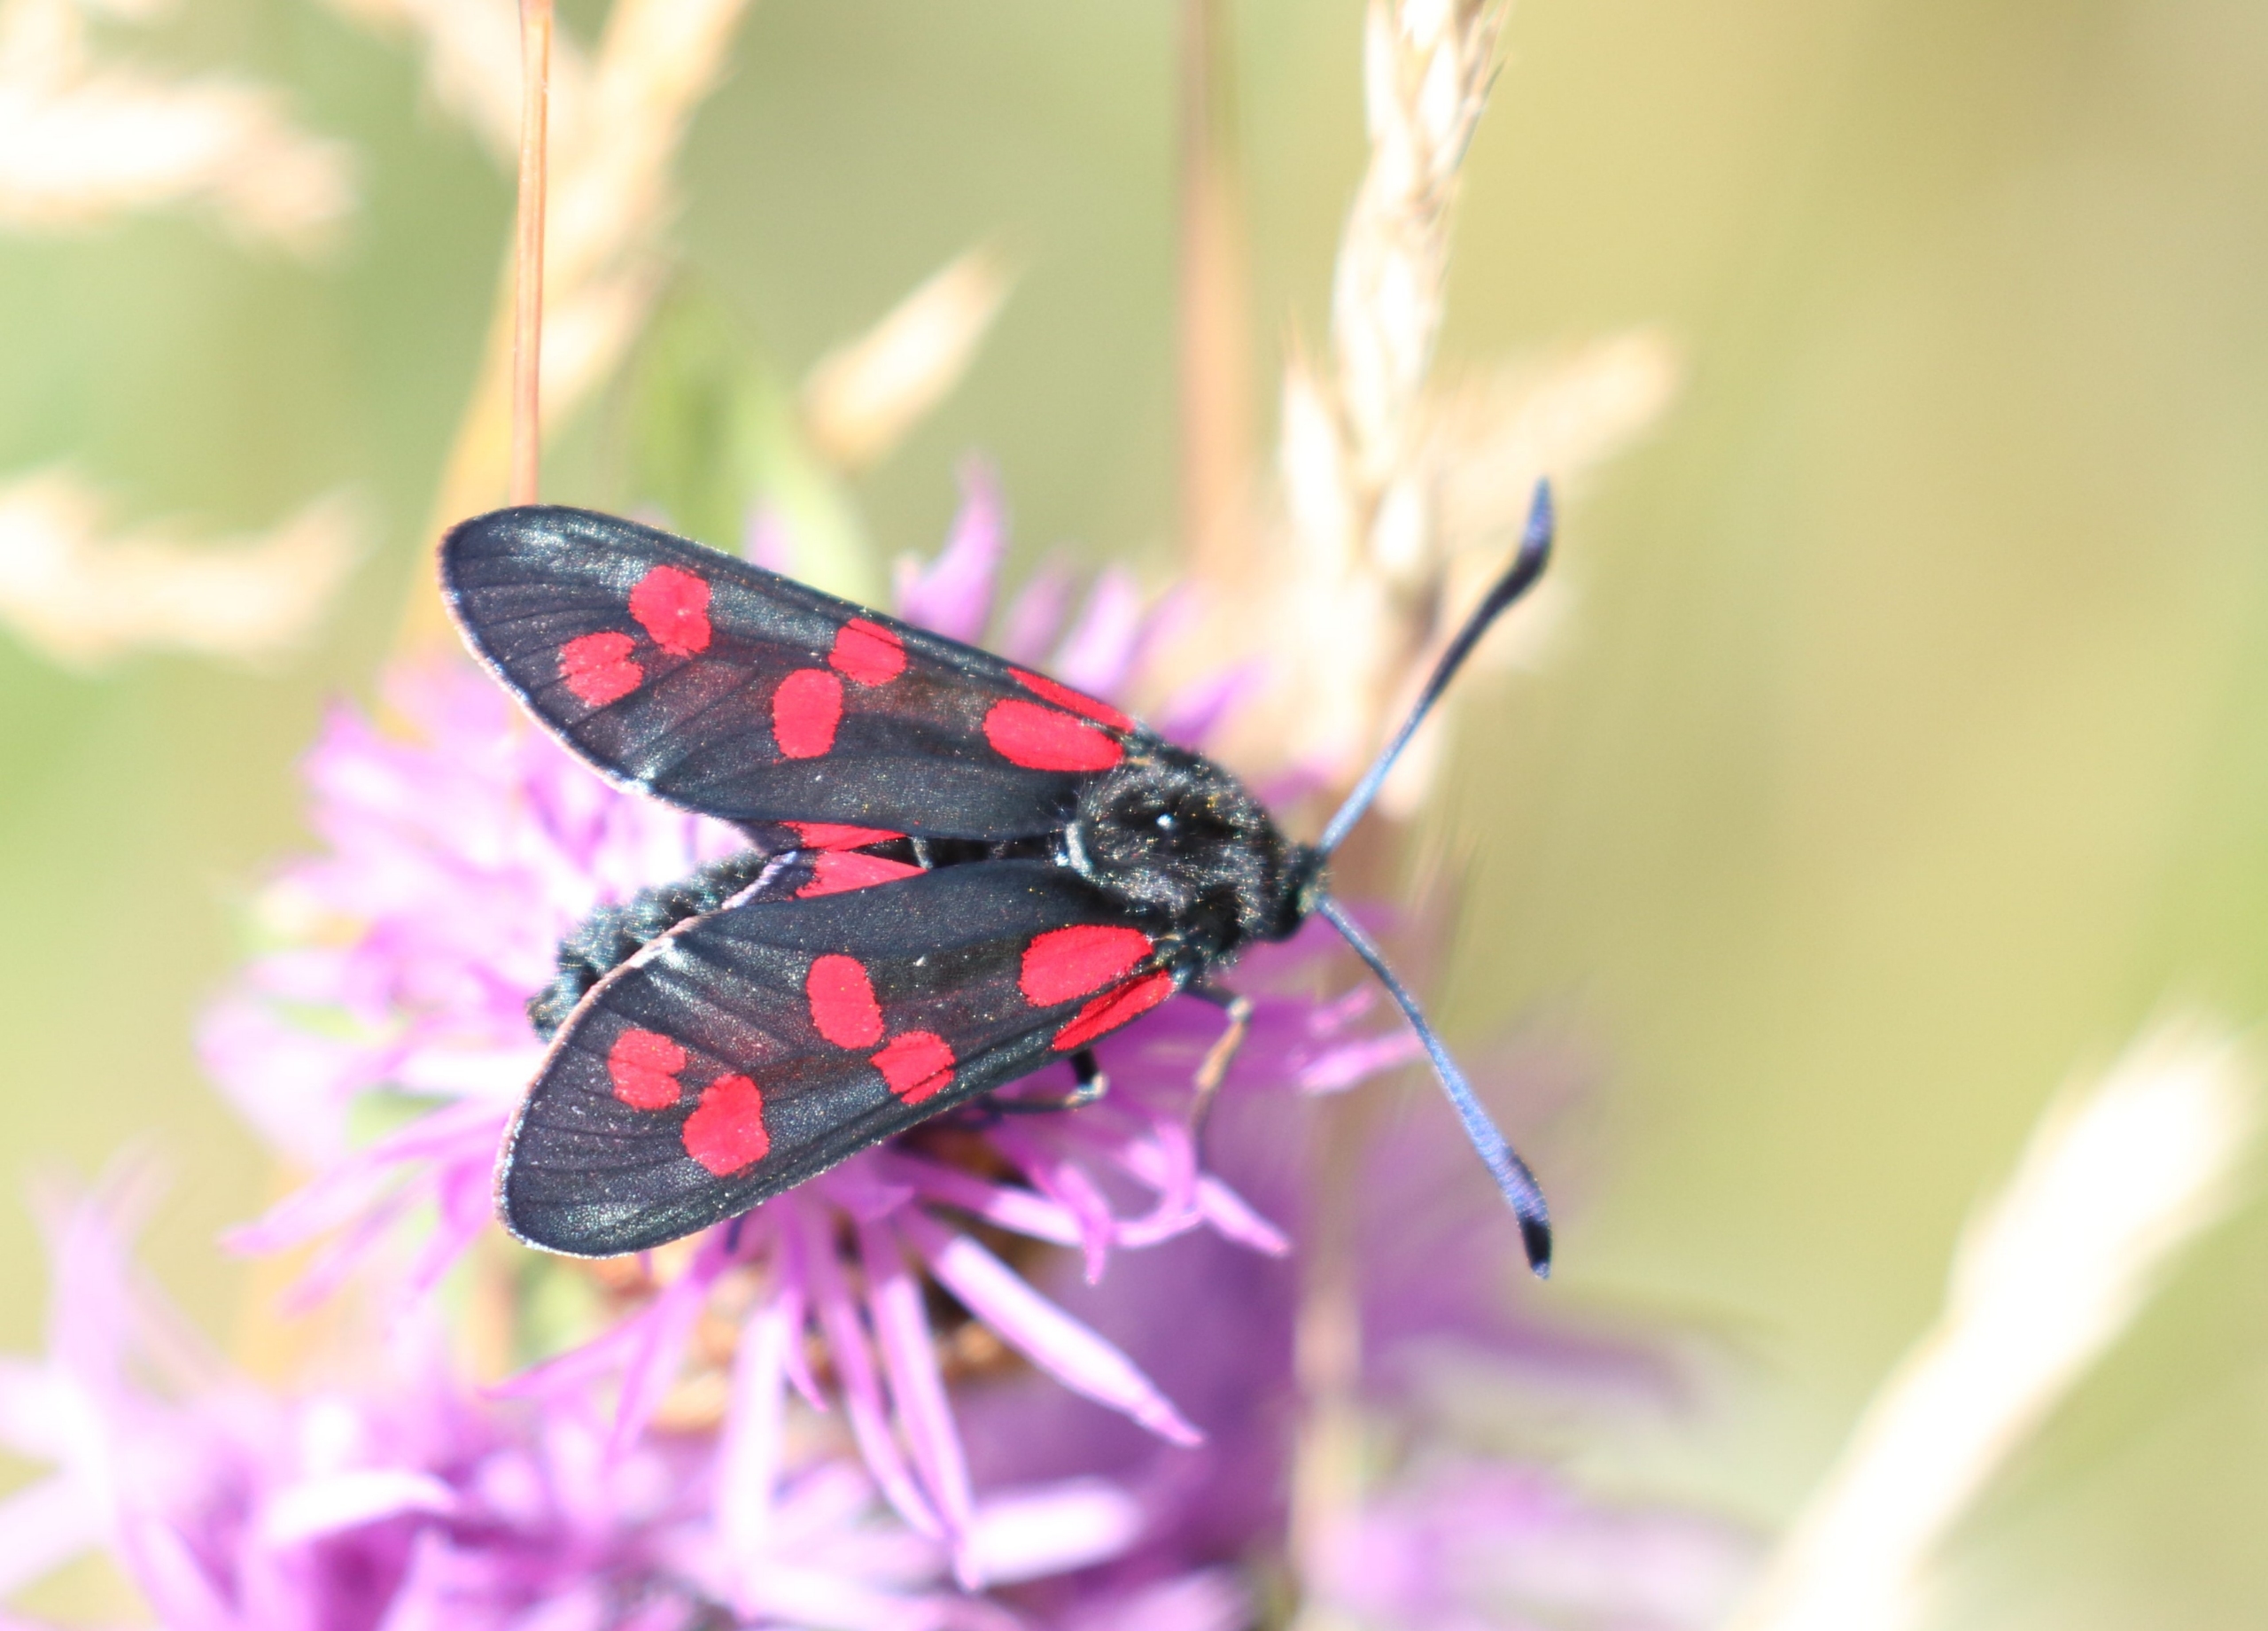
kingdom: Animalia
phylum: Arthropoda
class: Insecta
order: Lepidoptera
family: Zygaenidae
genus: Zygaena
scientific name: Zygaena filipendulae
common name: Seksplettet køllesværmer
